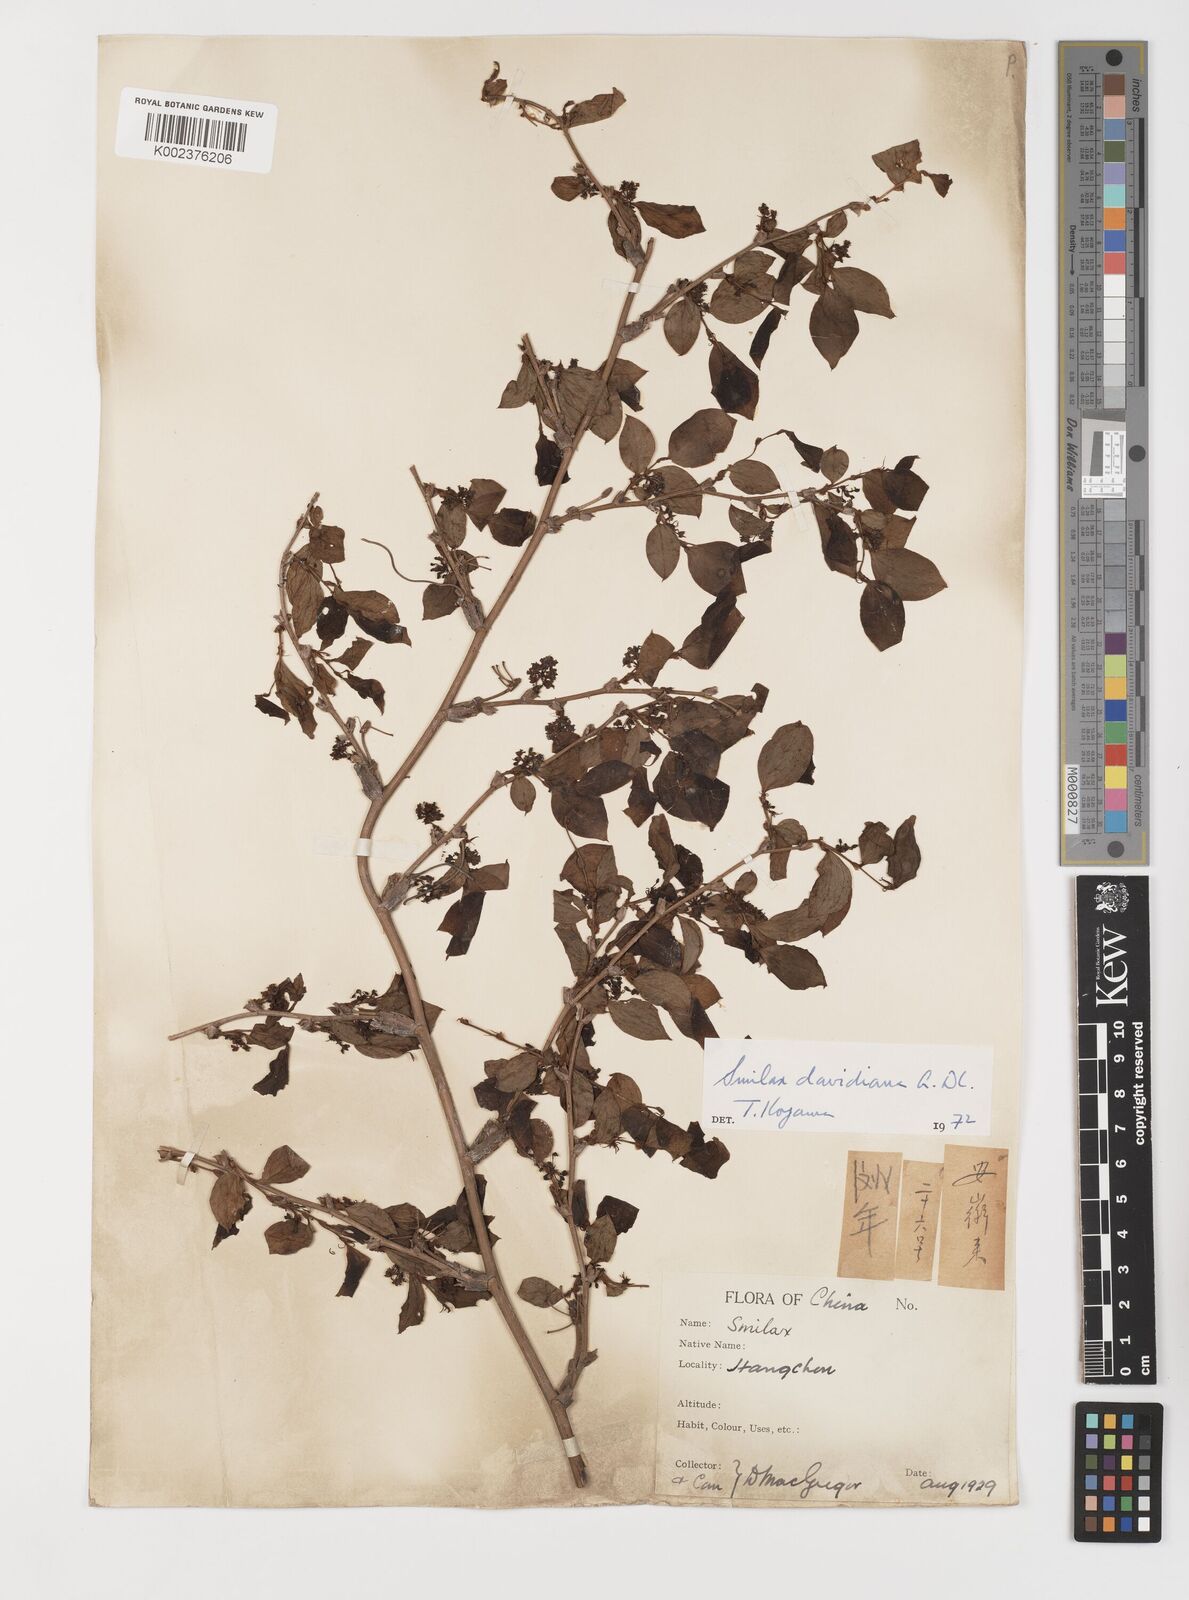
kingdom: Plantae
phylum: Tracheophyta
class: Liliopsida
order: Liliales
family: Smilacaceae
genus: Smilax
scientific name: Smilax davidiana
